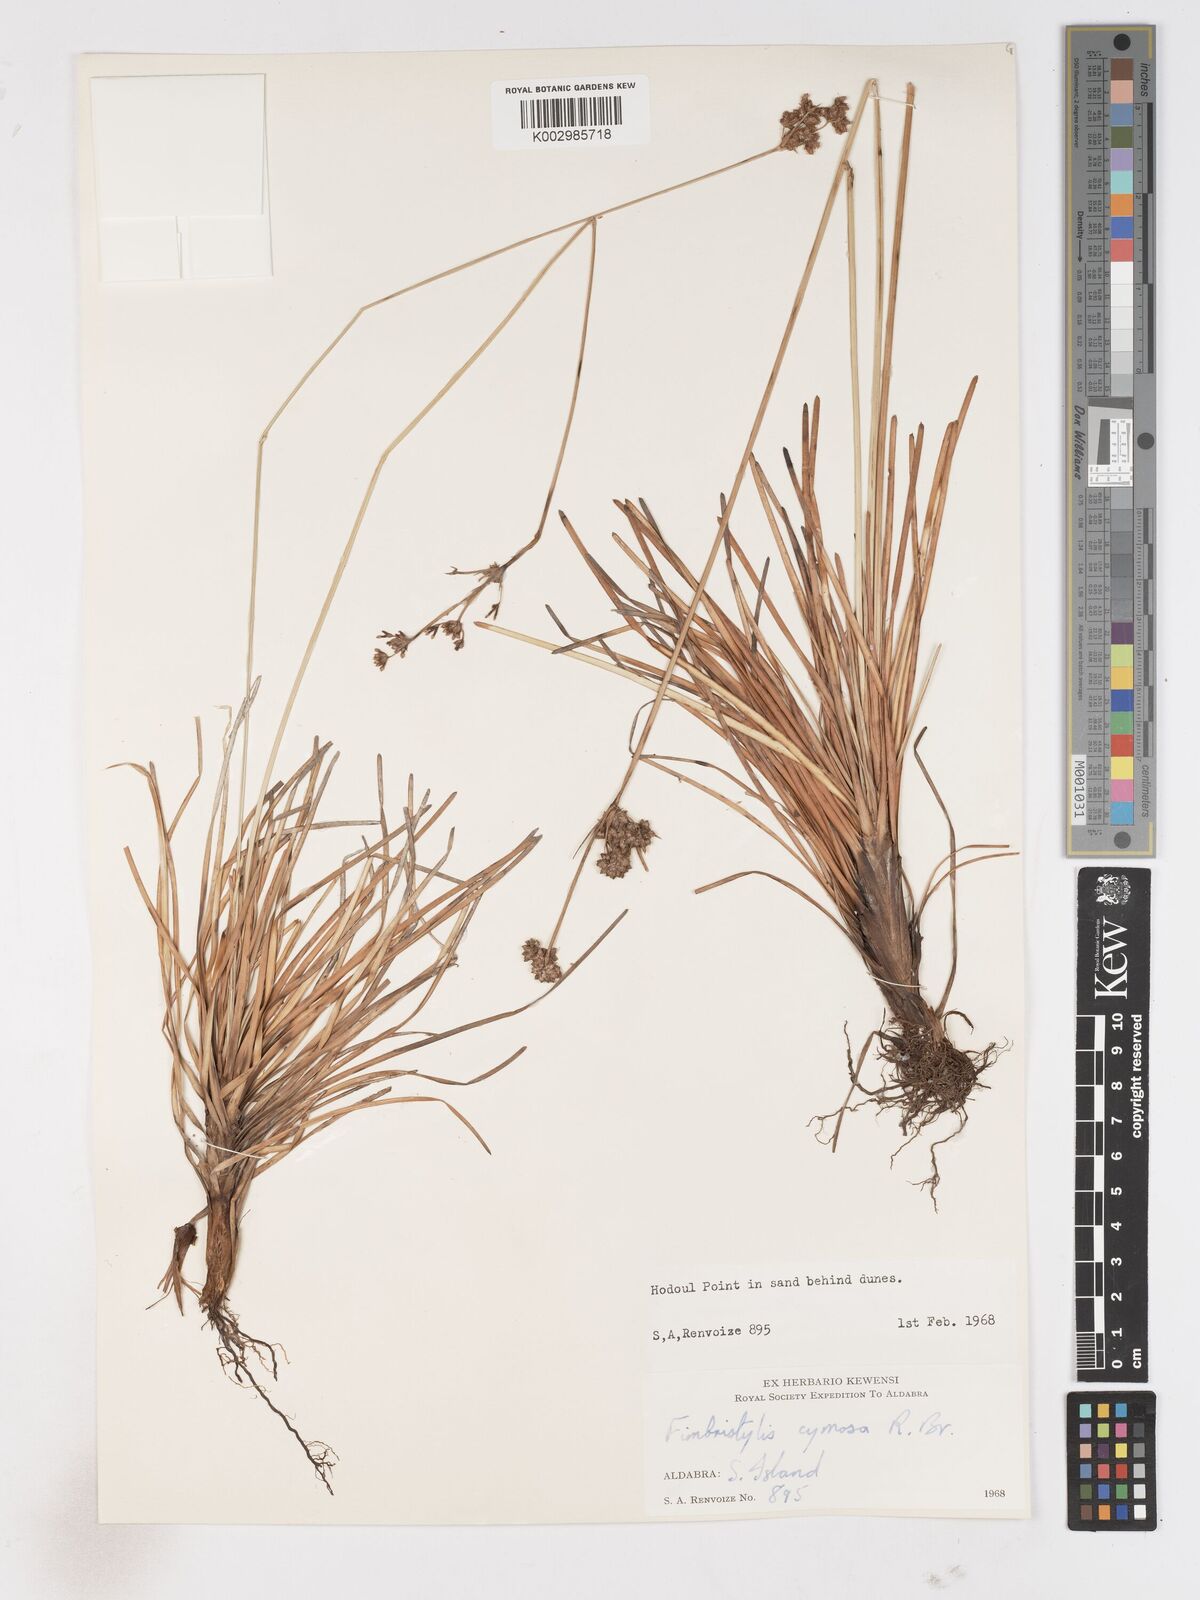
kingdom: Plantae
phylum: Tracheophyta
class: Liliopsida
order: Poales
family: Cyperaceae
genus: Fimbristylis
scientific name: Fimbristylis cymosa
